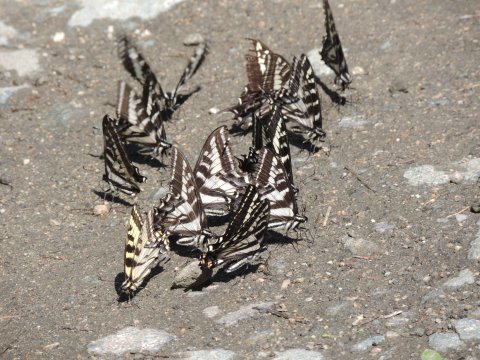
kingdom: Animalia
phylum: Arthropoda
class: Insecta
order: Lepidoptera
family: Papilionidae
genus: Pterourus
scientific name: Pterourus eurymedon
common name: Pale Swallowtail
